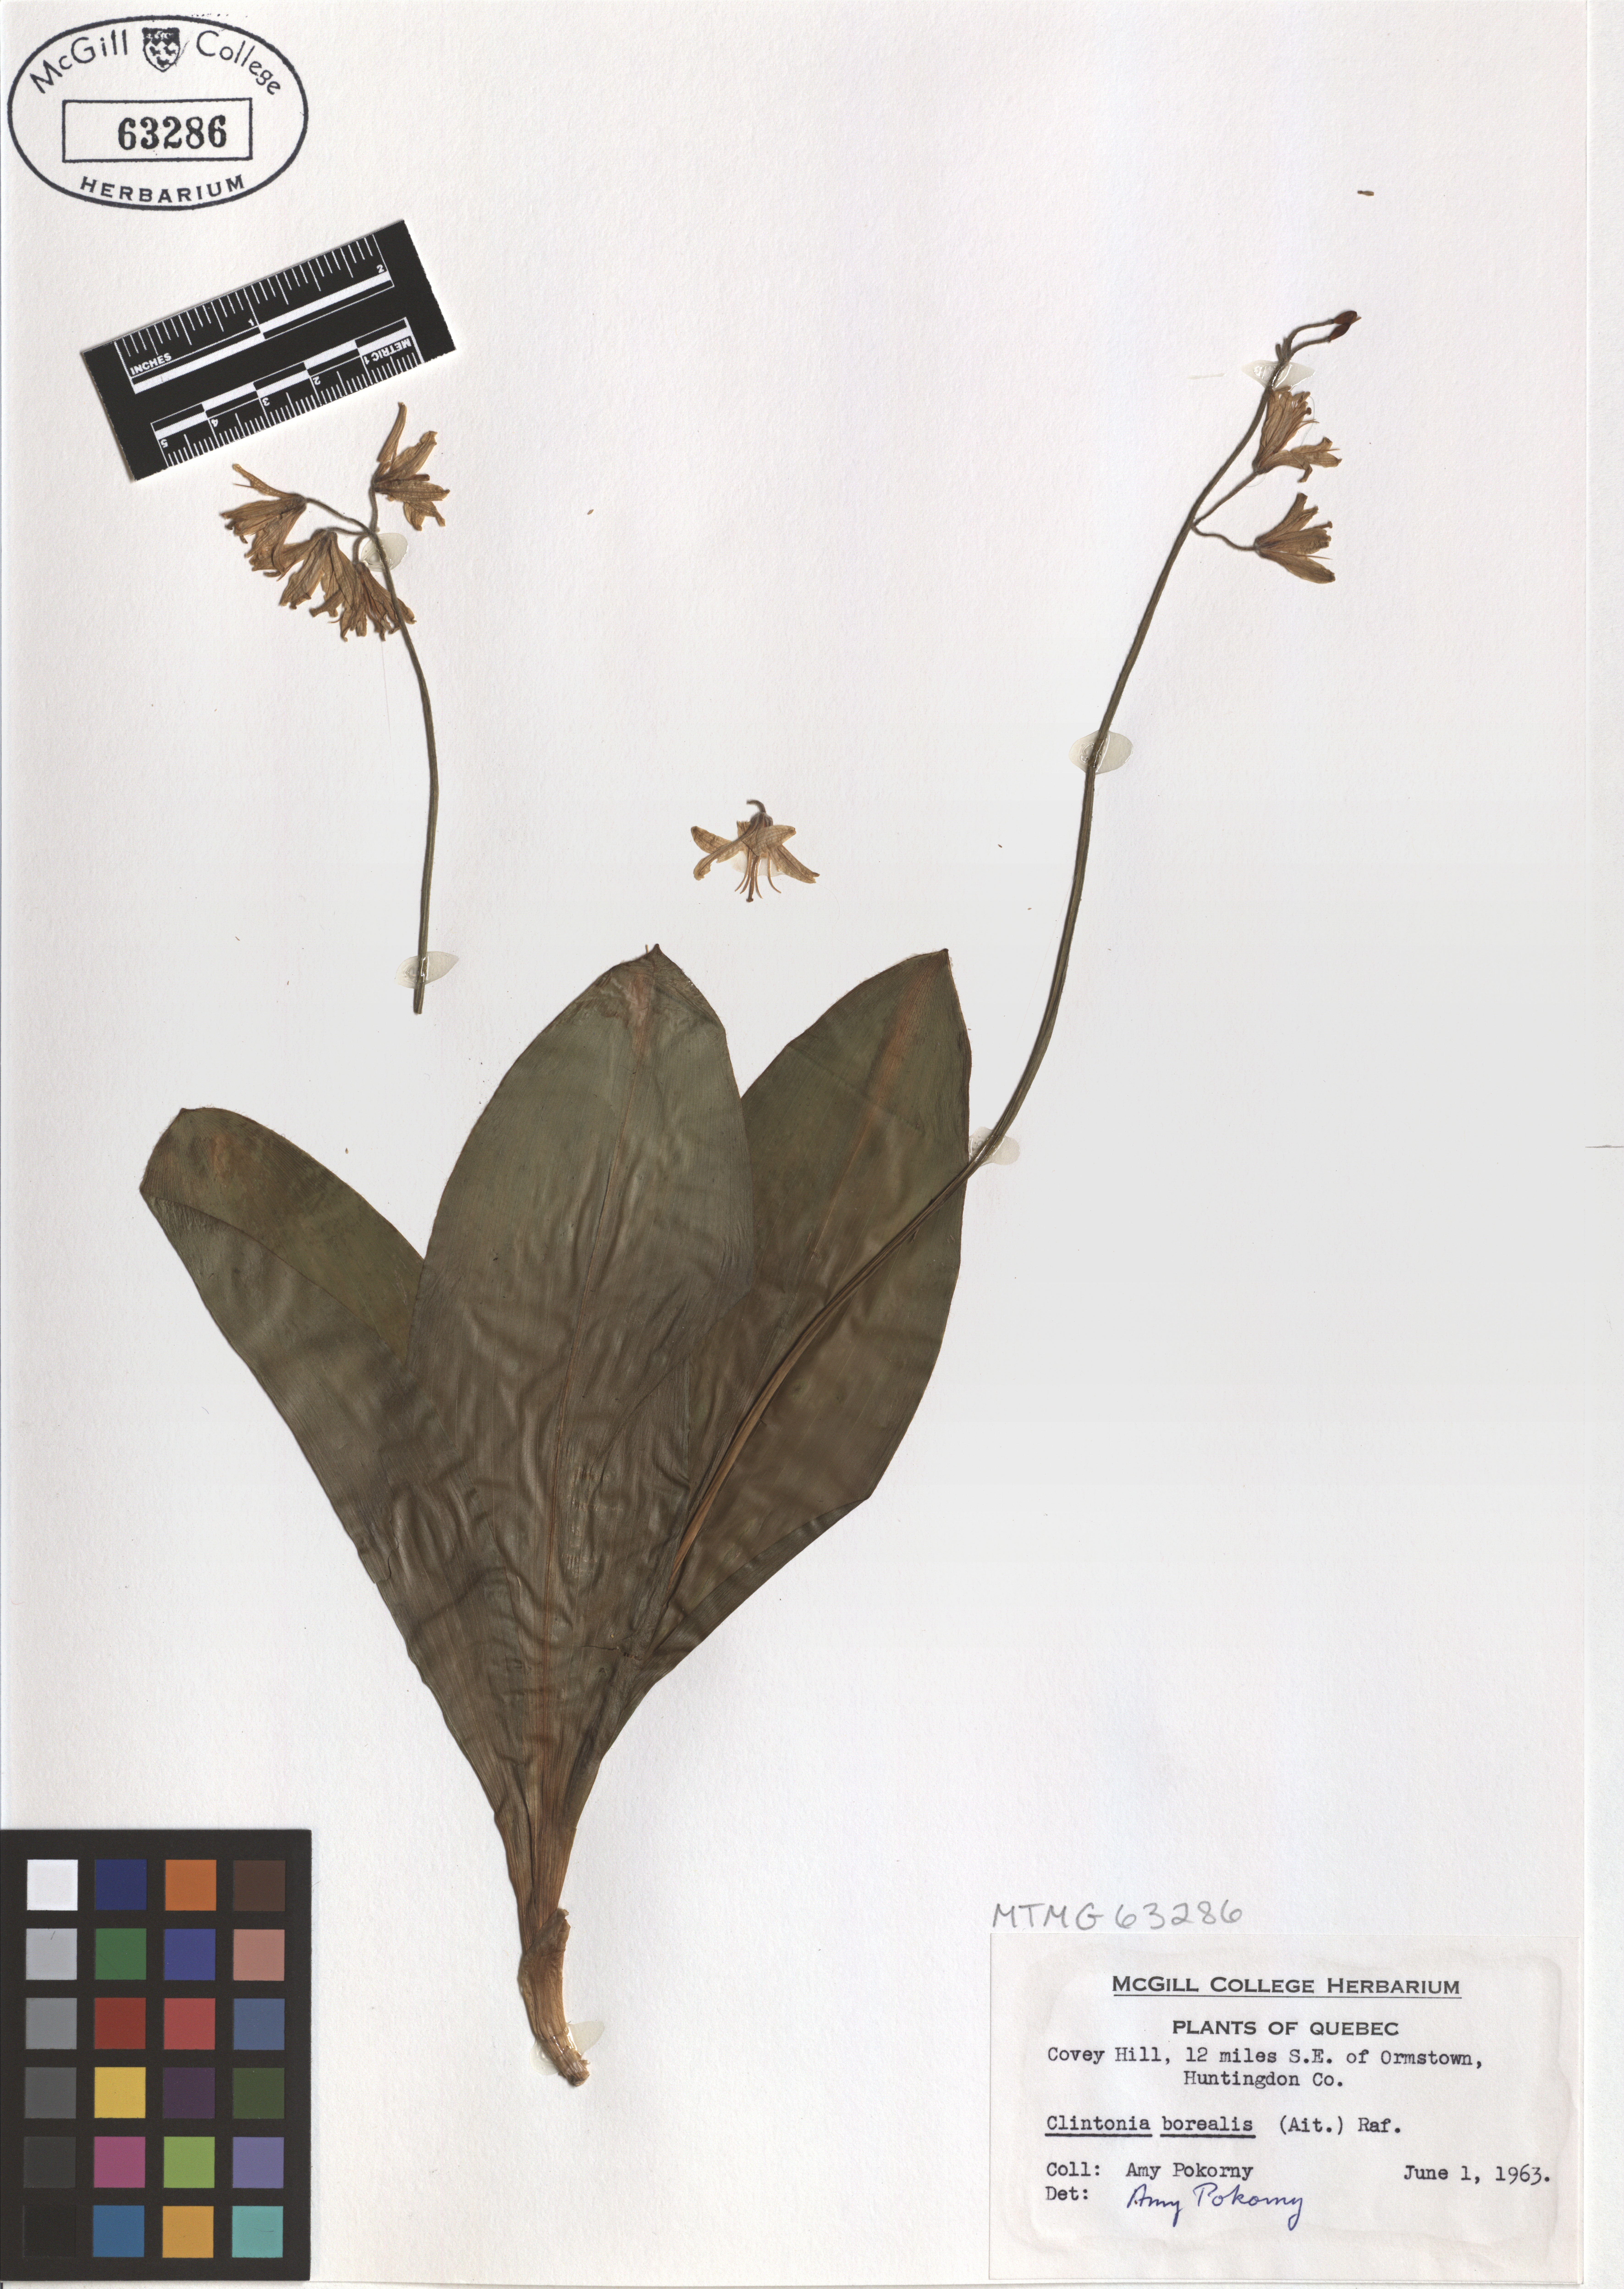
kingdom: Plantae
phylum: Tracheophyta
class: Liliopsida
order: Liliales
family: Liliaceae
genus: Clintonia
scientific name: Clintonia borealis
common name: Yellow clintonia
